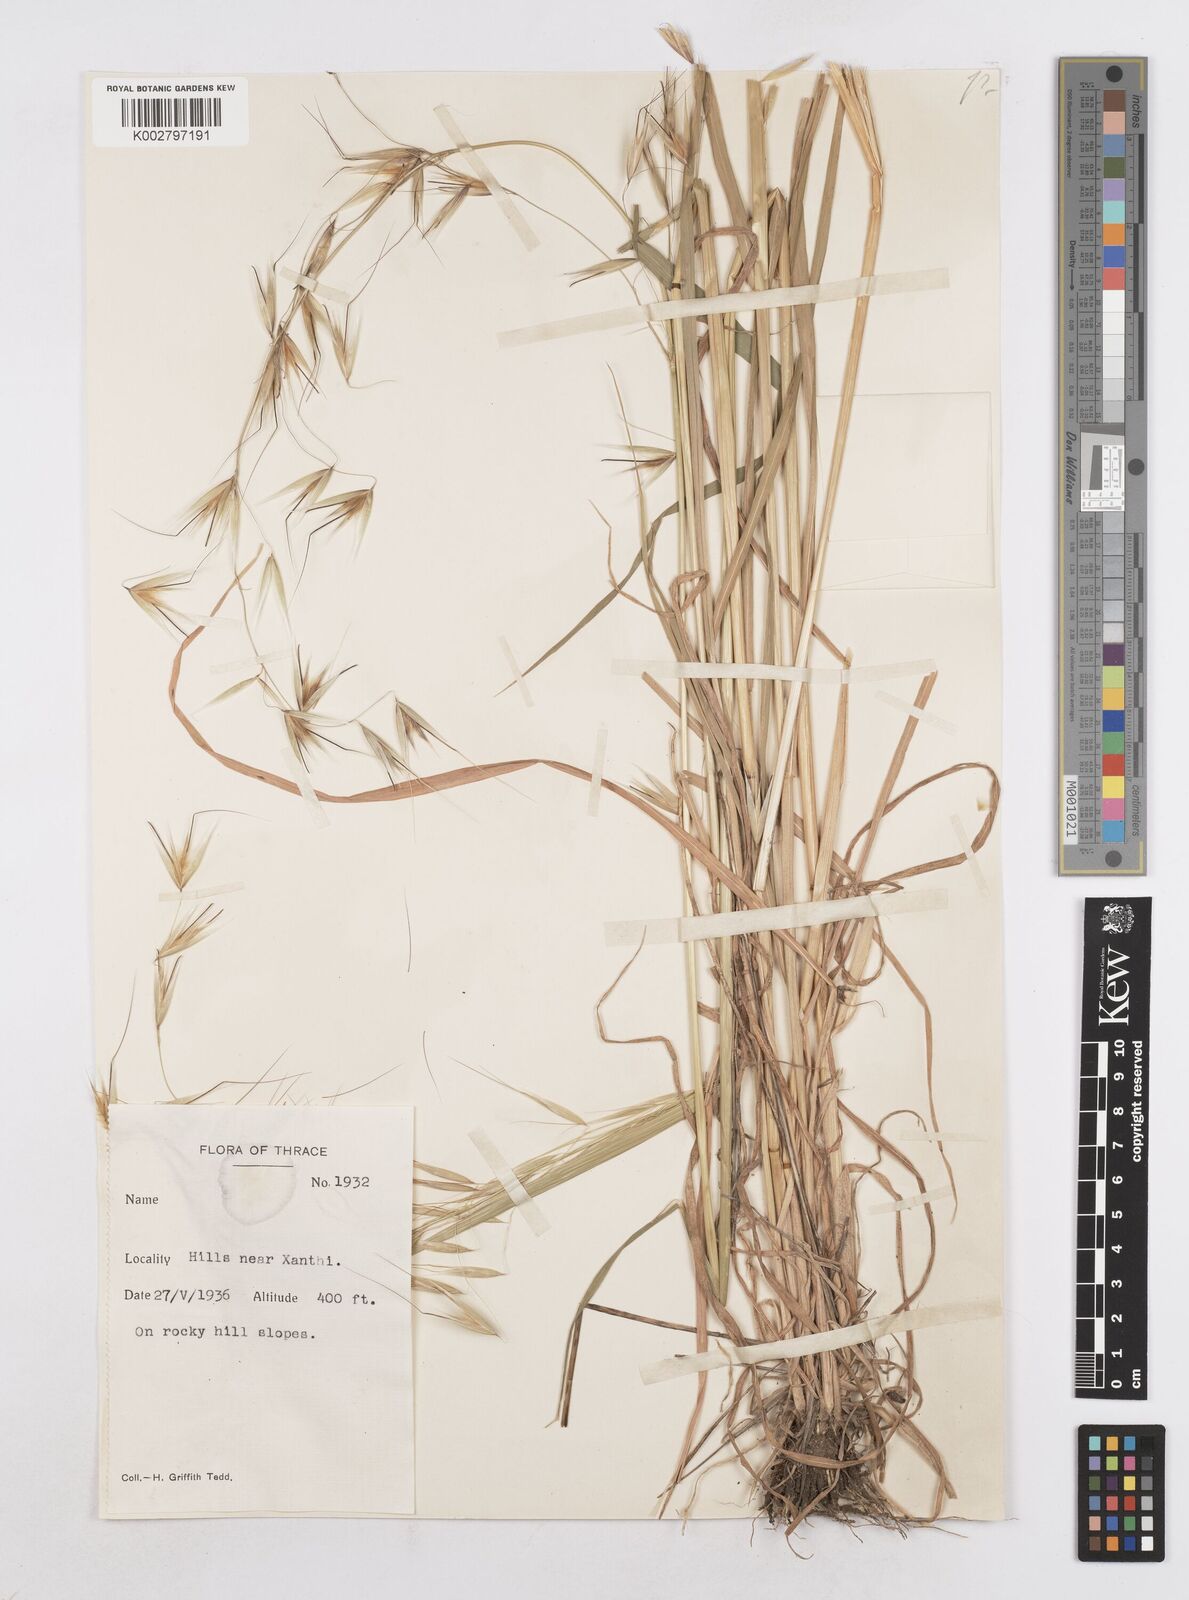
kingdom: Plantae
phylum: Tracheophyta
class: Liliopsida
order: Poales
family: Poaceae
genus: Avena
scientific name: Avena
